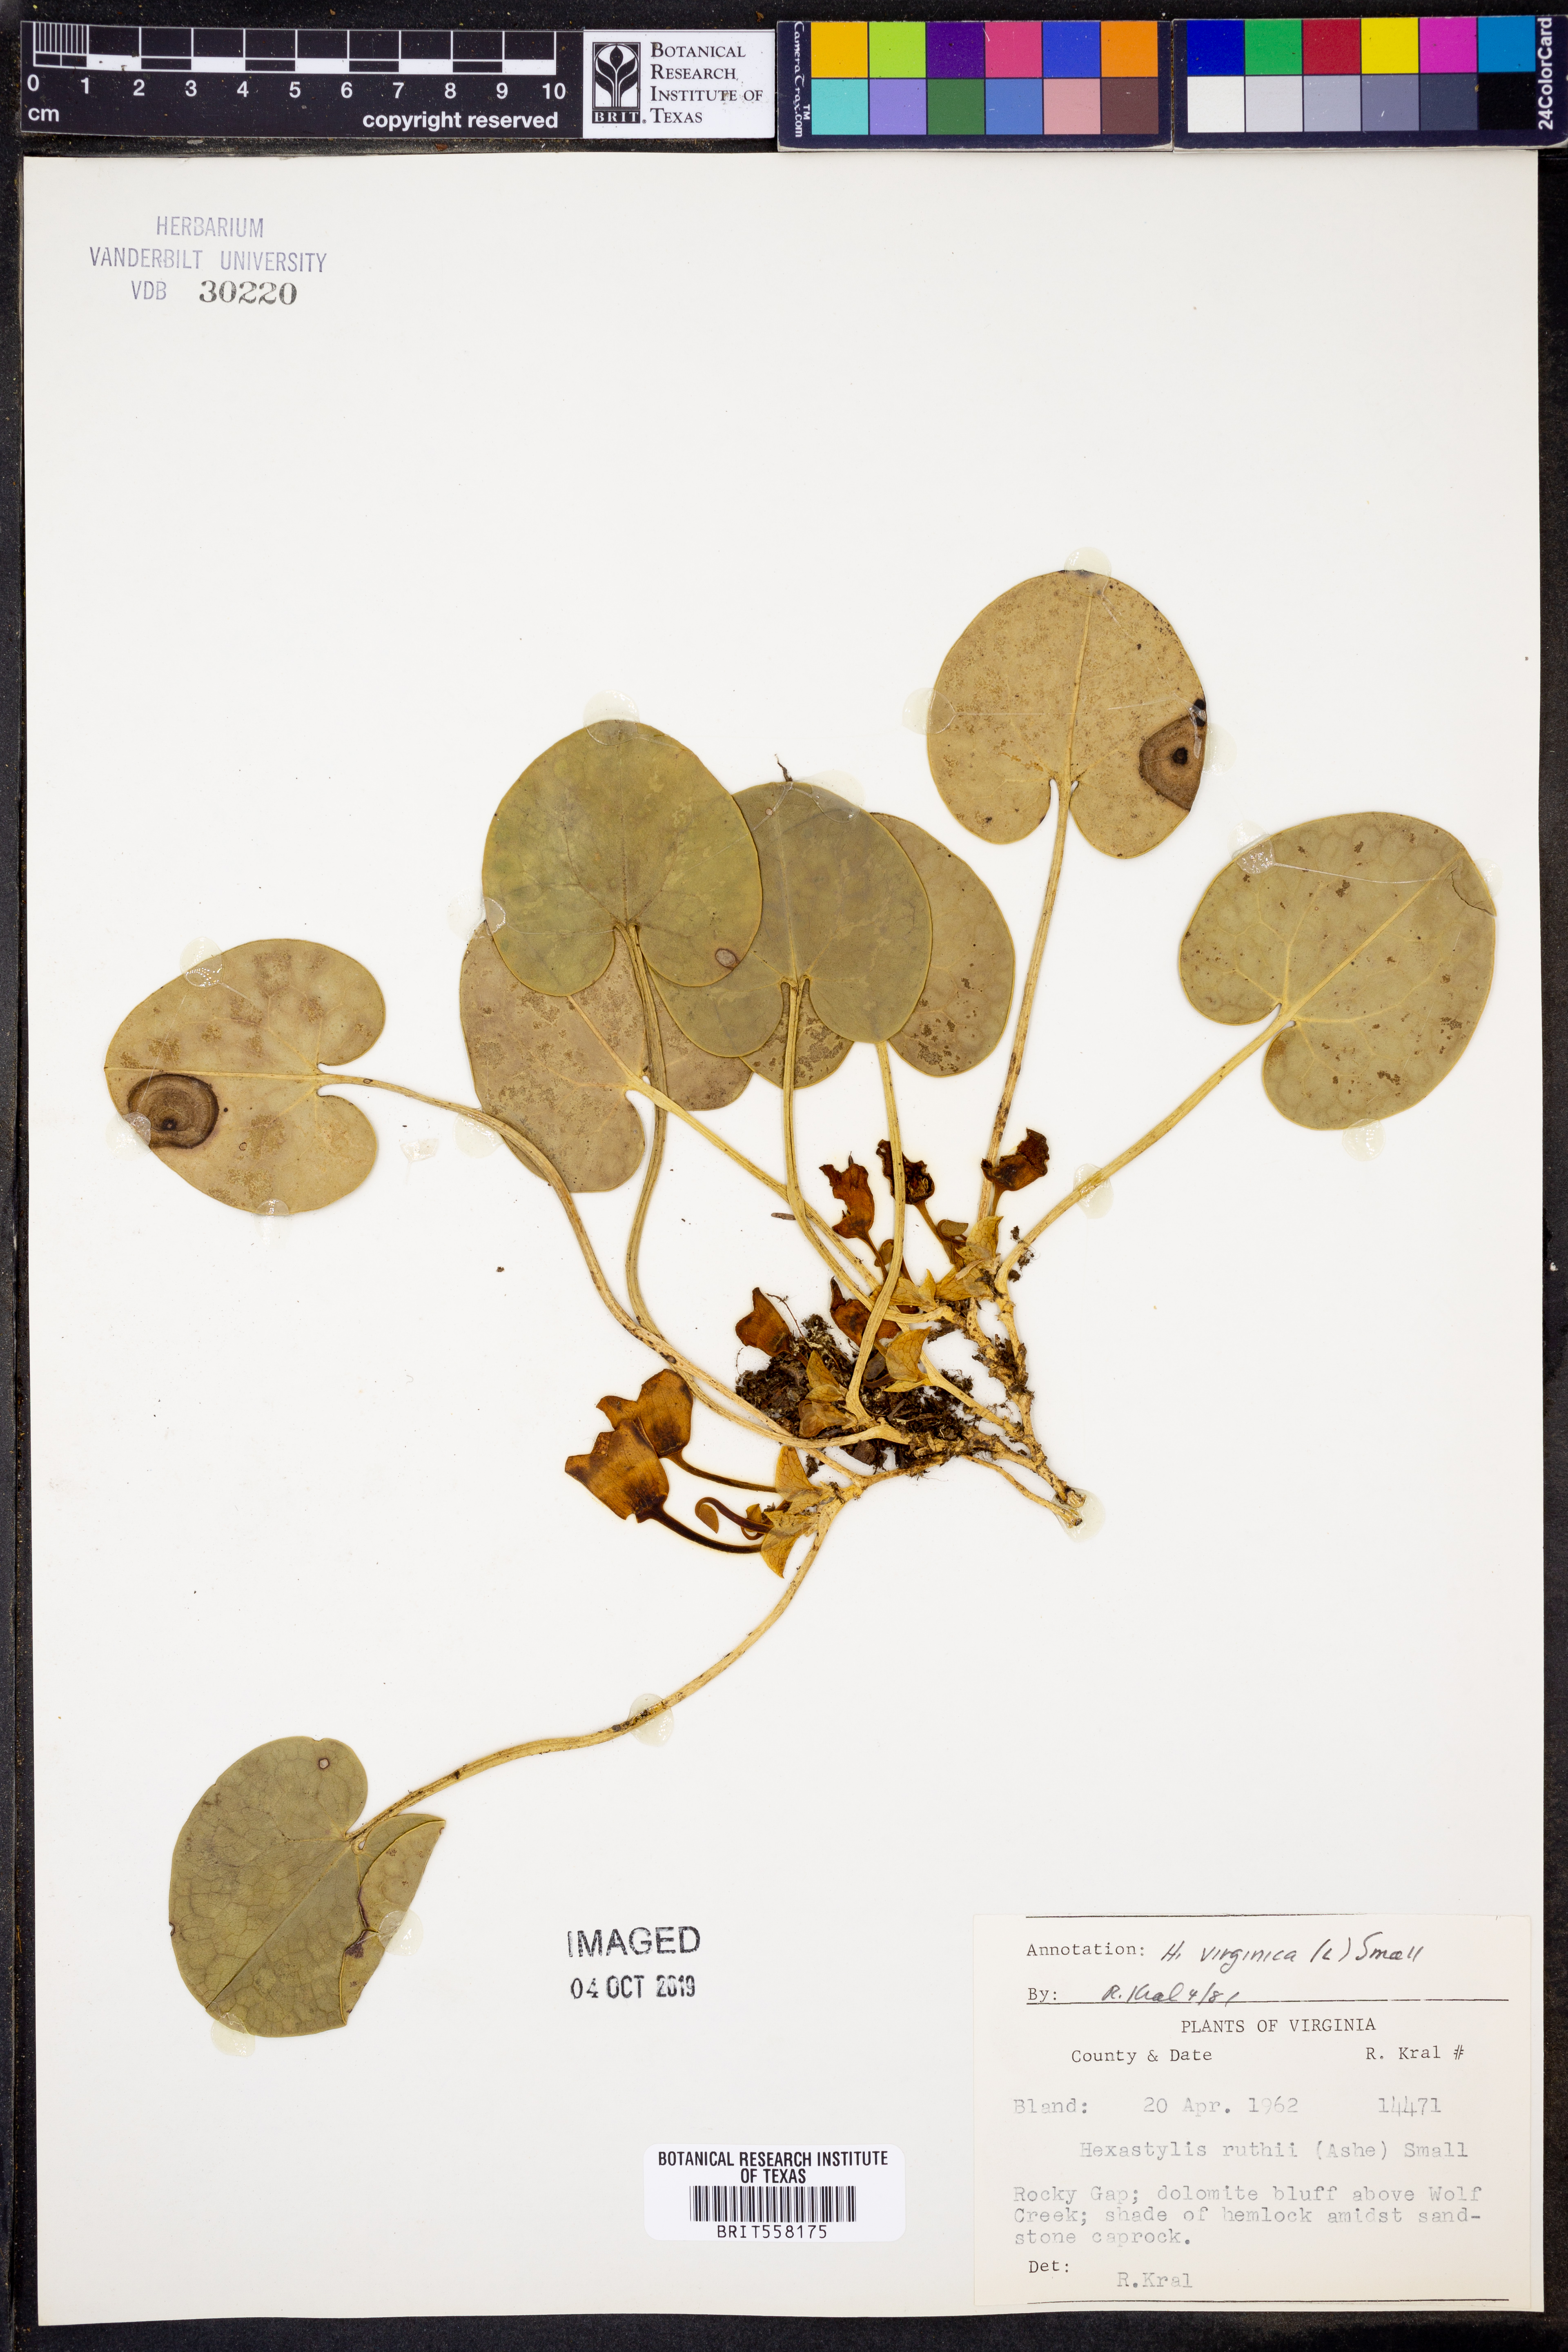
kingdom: Plantae
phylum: Tracheophyta
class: Magnoliopsida
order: Piperales
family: Aristolochiaceae
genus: Hexastylis
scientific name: Hexastylis virginica
